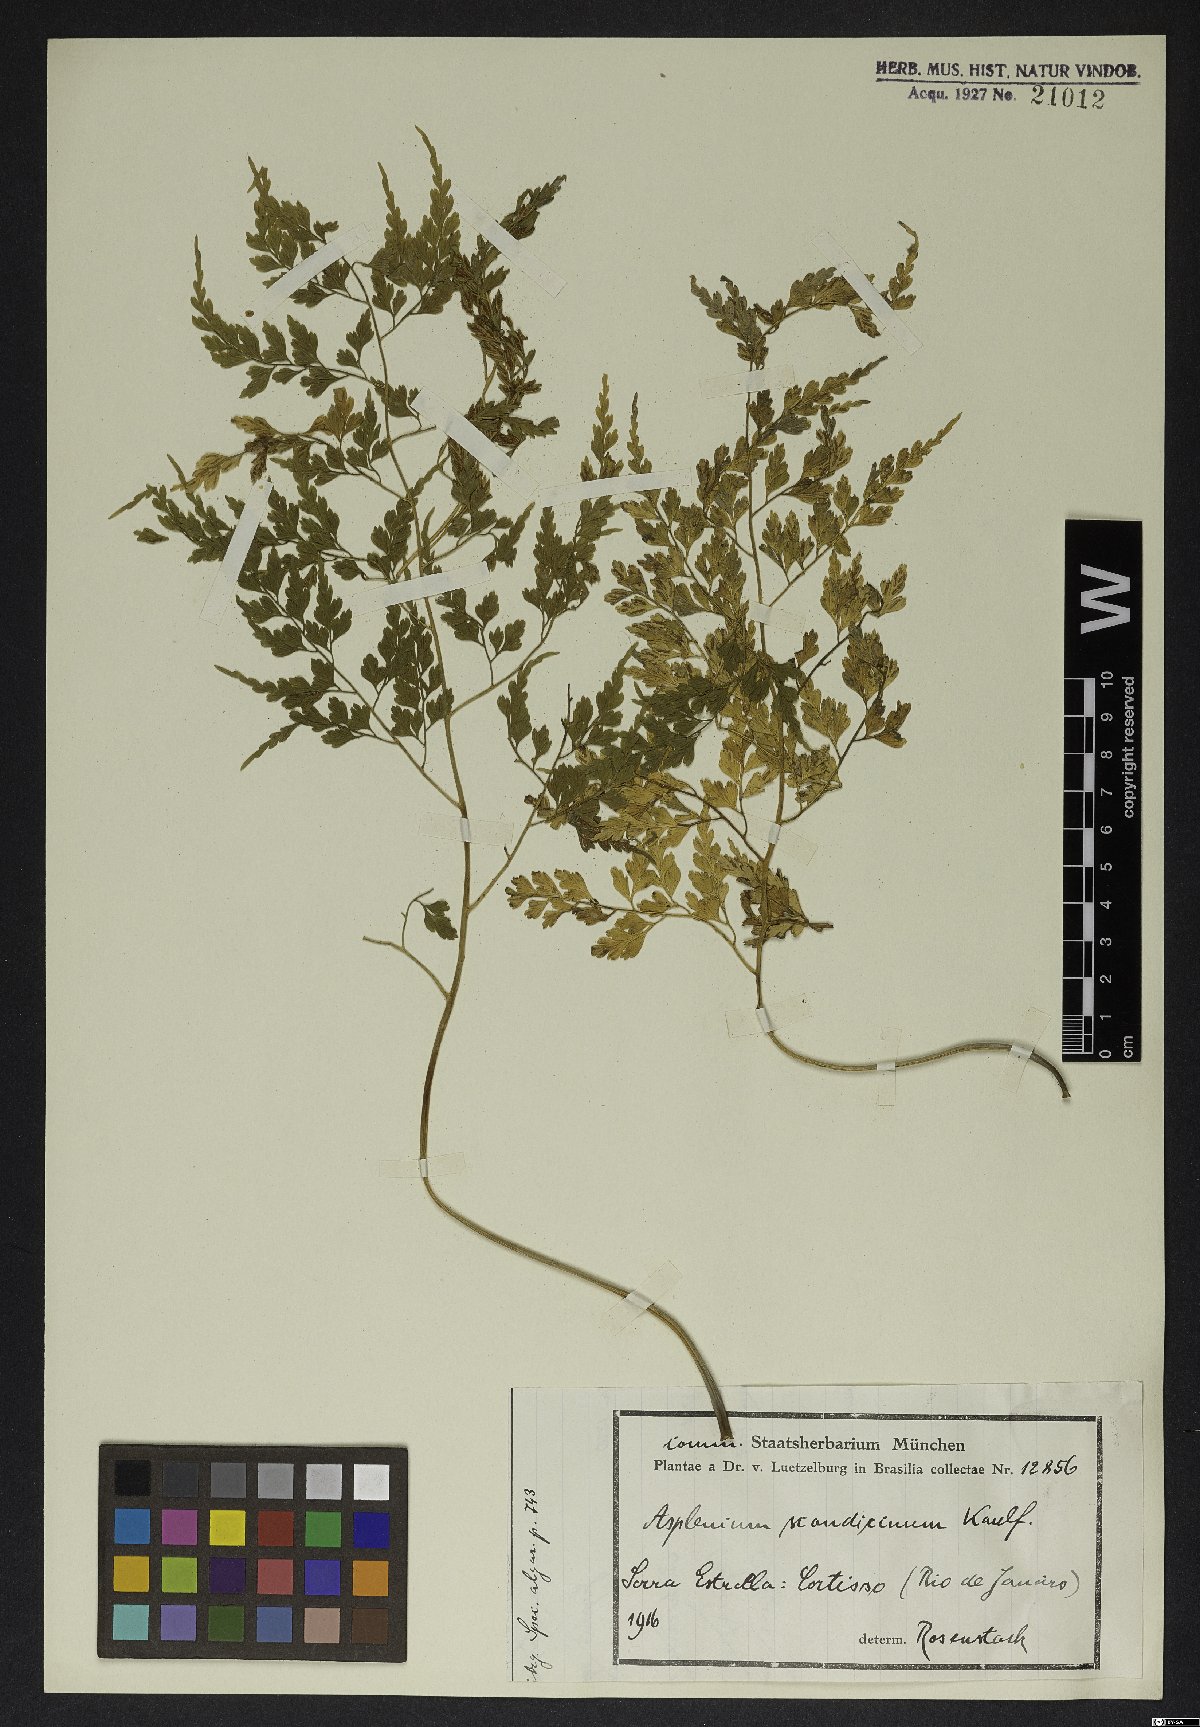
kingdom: Plantae
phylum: Tracheophyta
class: Polypodiopsida
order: Polypodiales
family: Aspleniaceae
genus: Asplenium
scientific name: Asplenium scandicinum
